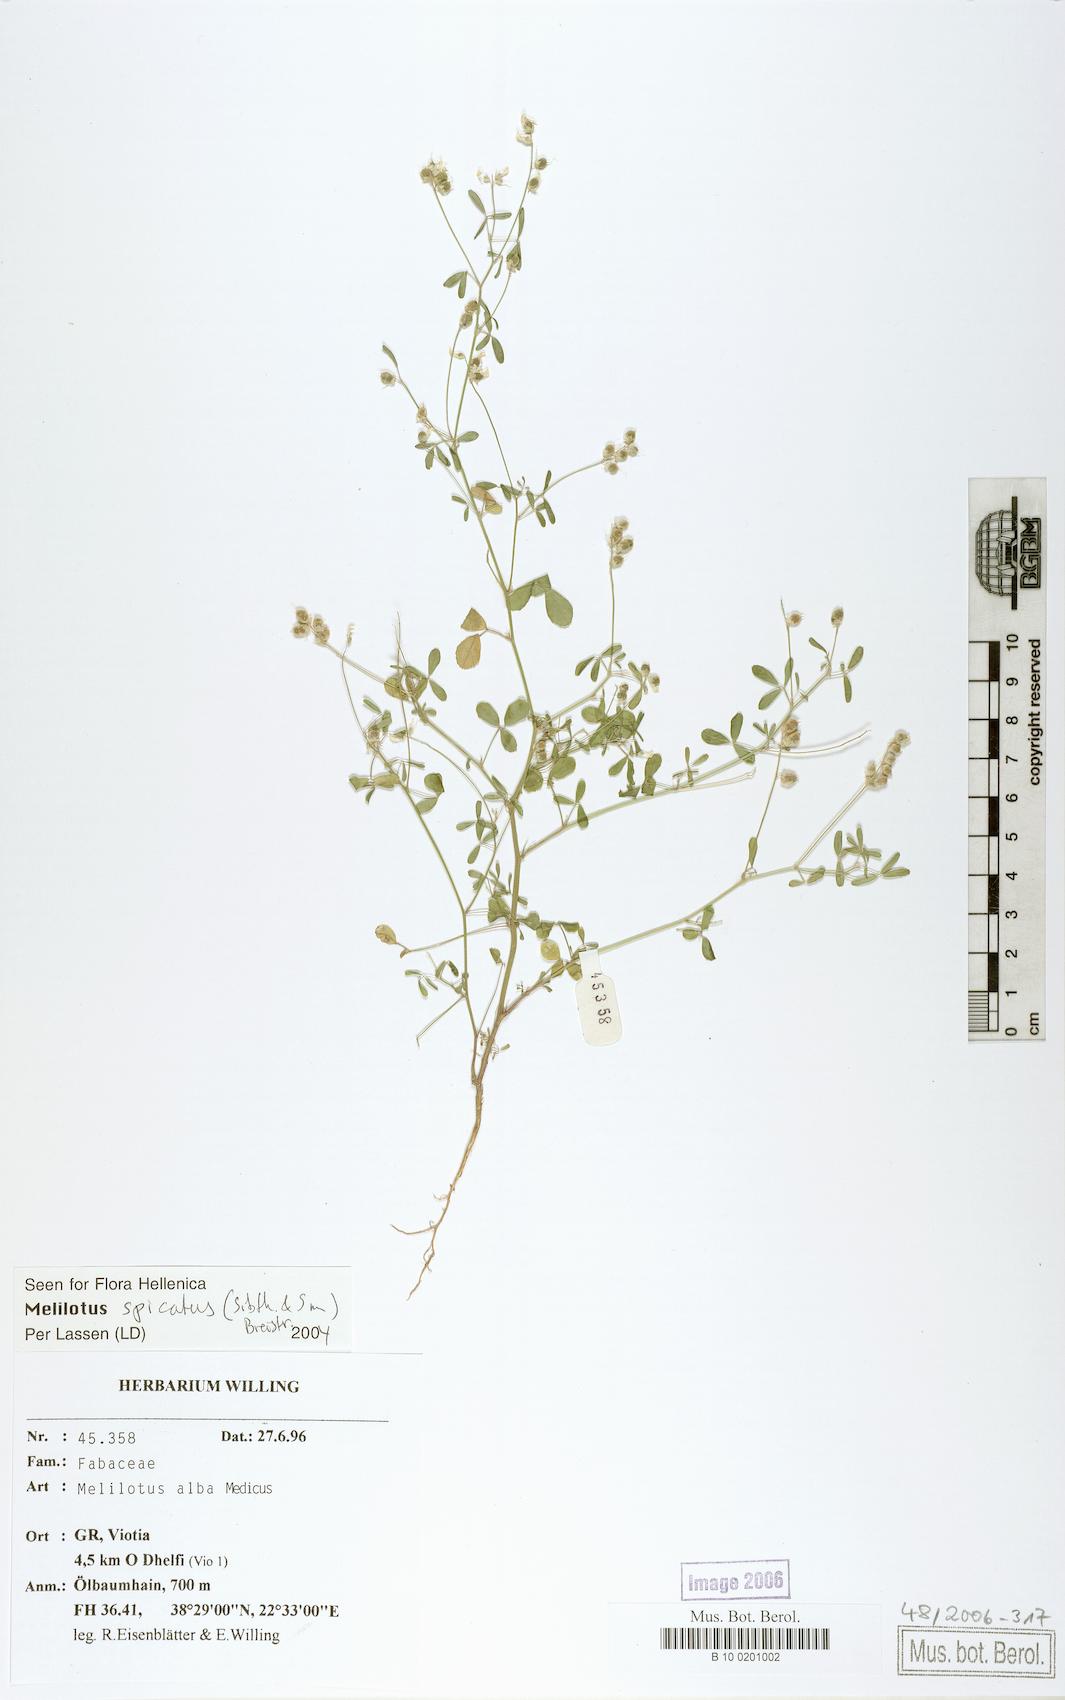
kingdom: Plantae
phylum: Tracheophyta
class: Magnoliopsida
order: Fabales
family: Fabaceae
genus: Melilotus
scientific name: Melilotus albus
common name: White melilot
